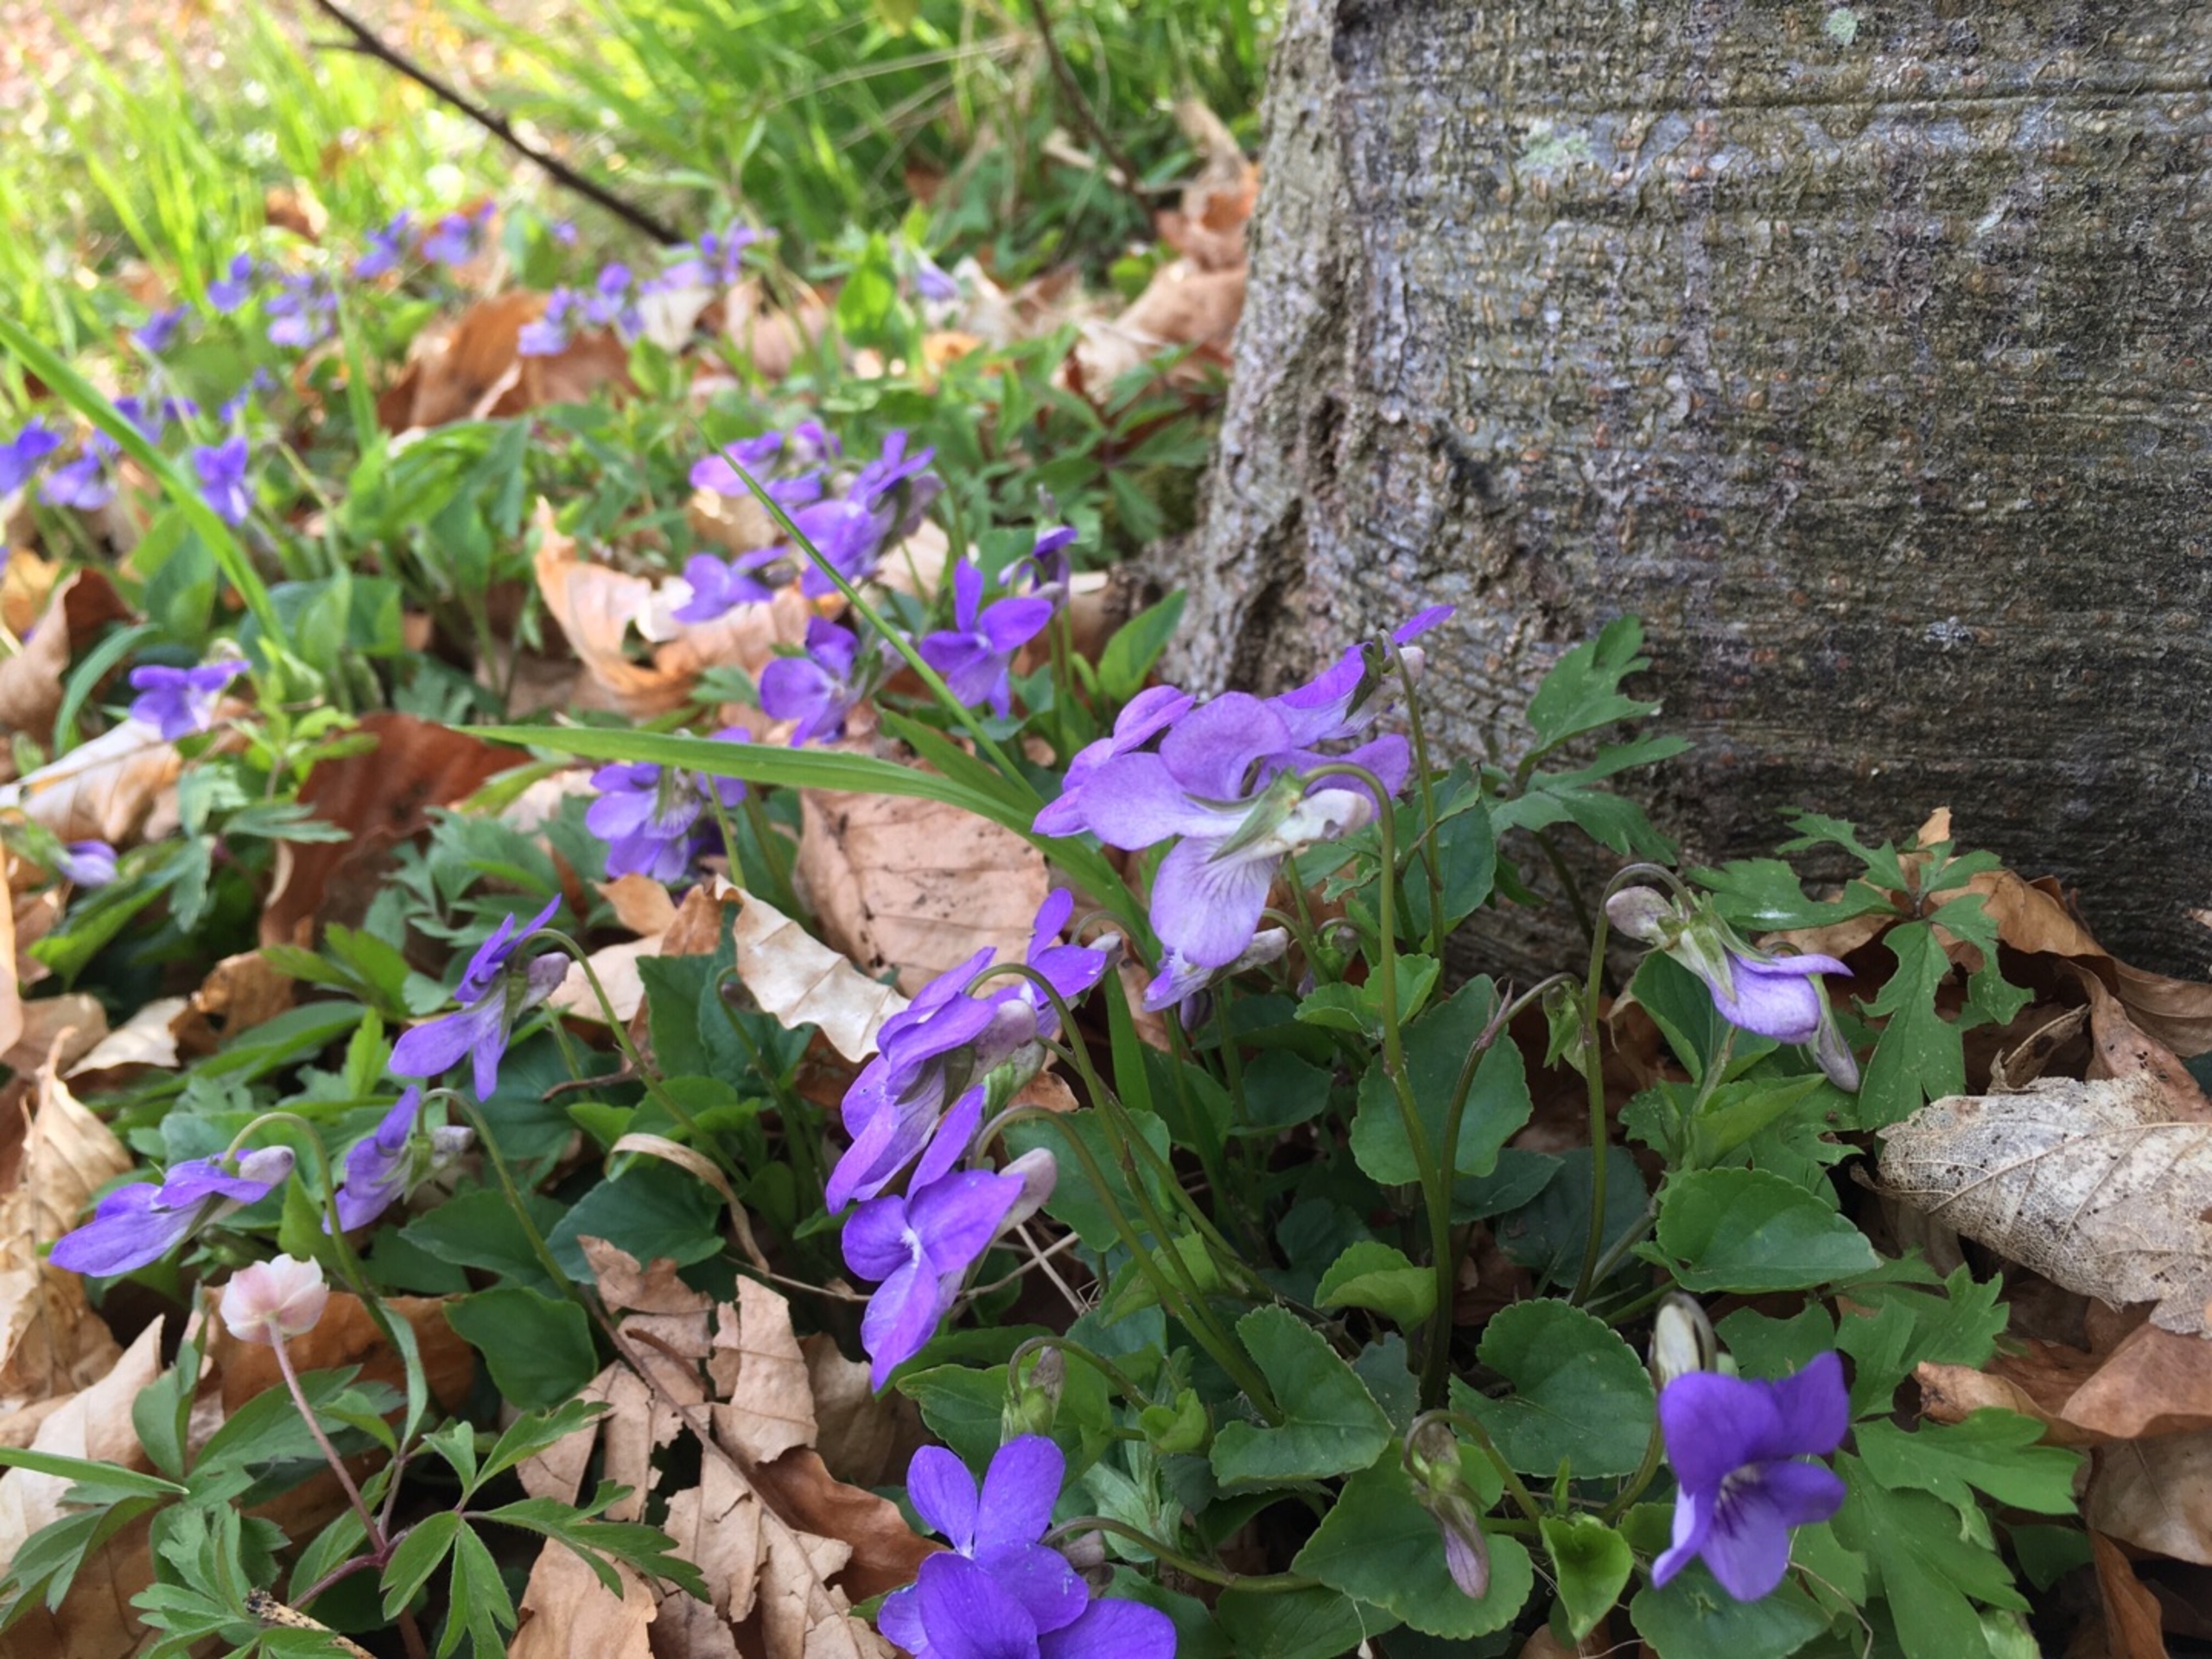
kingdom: Plantae
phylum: Tracheophyta
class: Magnoliopsida
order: Malpighiales
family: Violaceae
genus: Viola
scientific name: Viola riviniana
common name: Krat-viol
